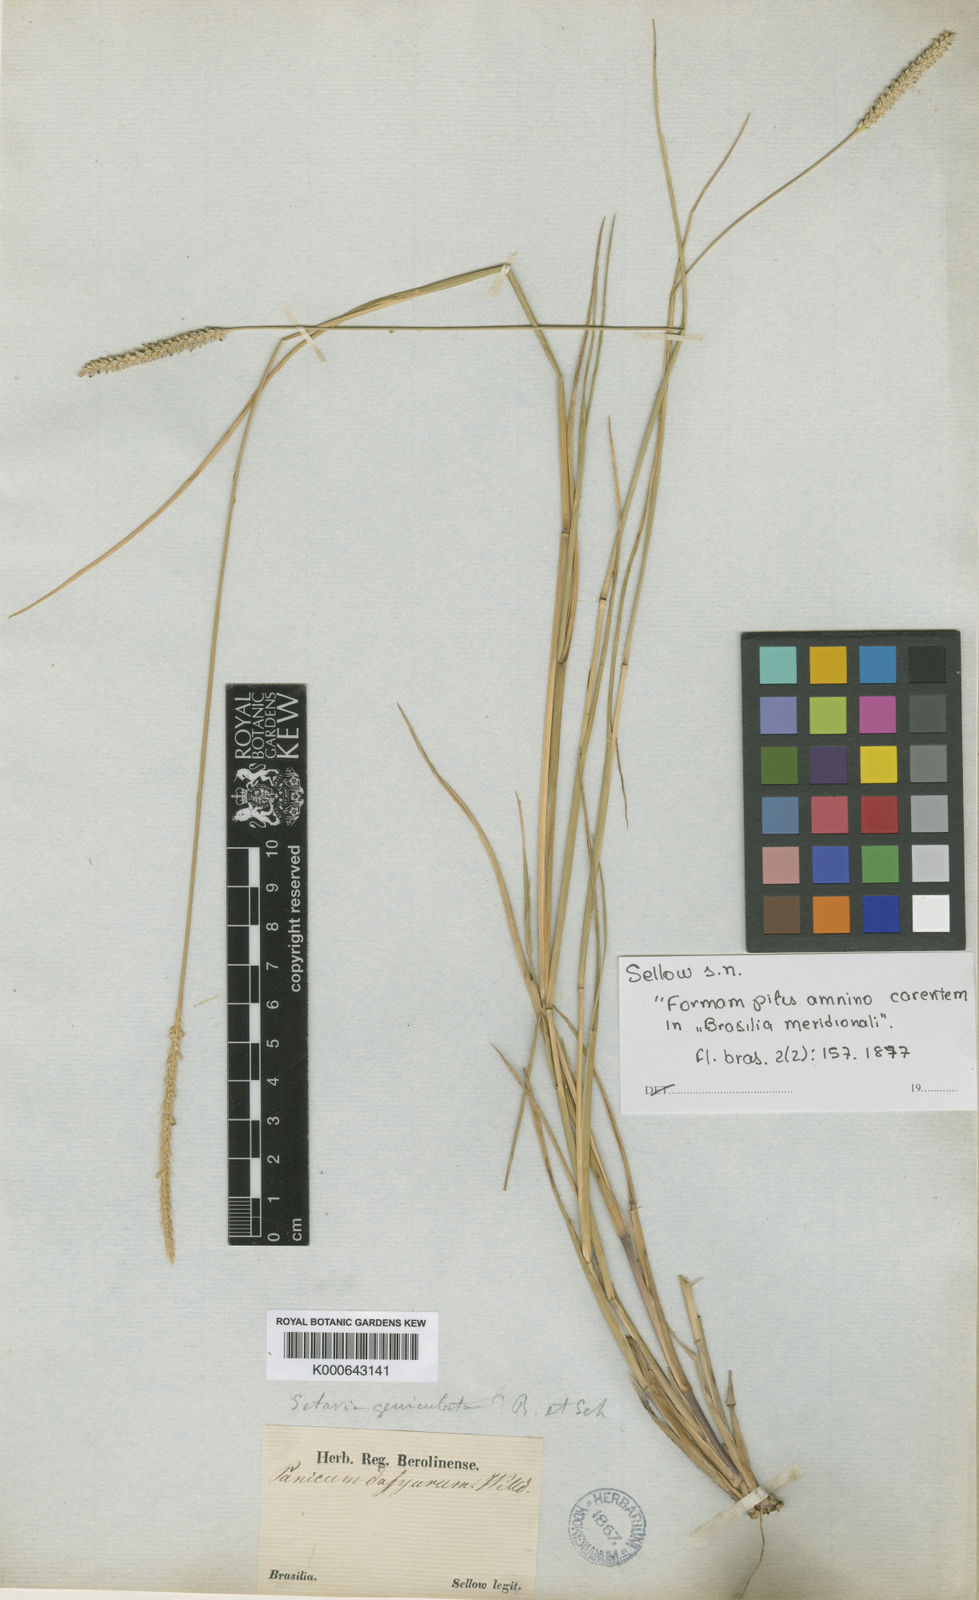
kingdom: Plantae
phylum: Tracheophyta
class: Liliopsida
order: Poales
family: Poaceae
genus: Setaria
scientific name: Setaria
